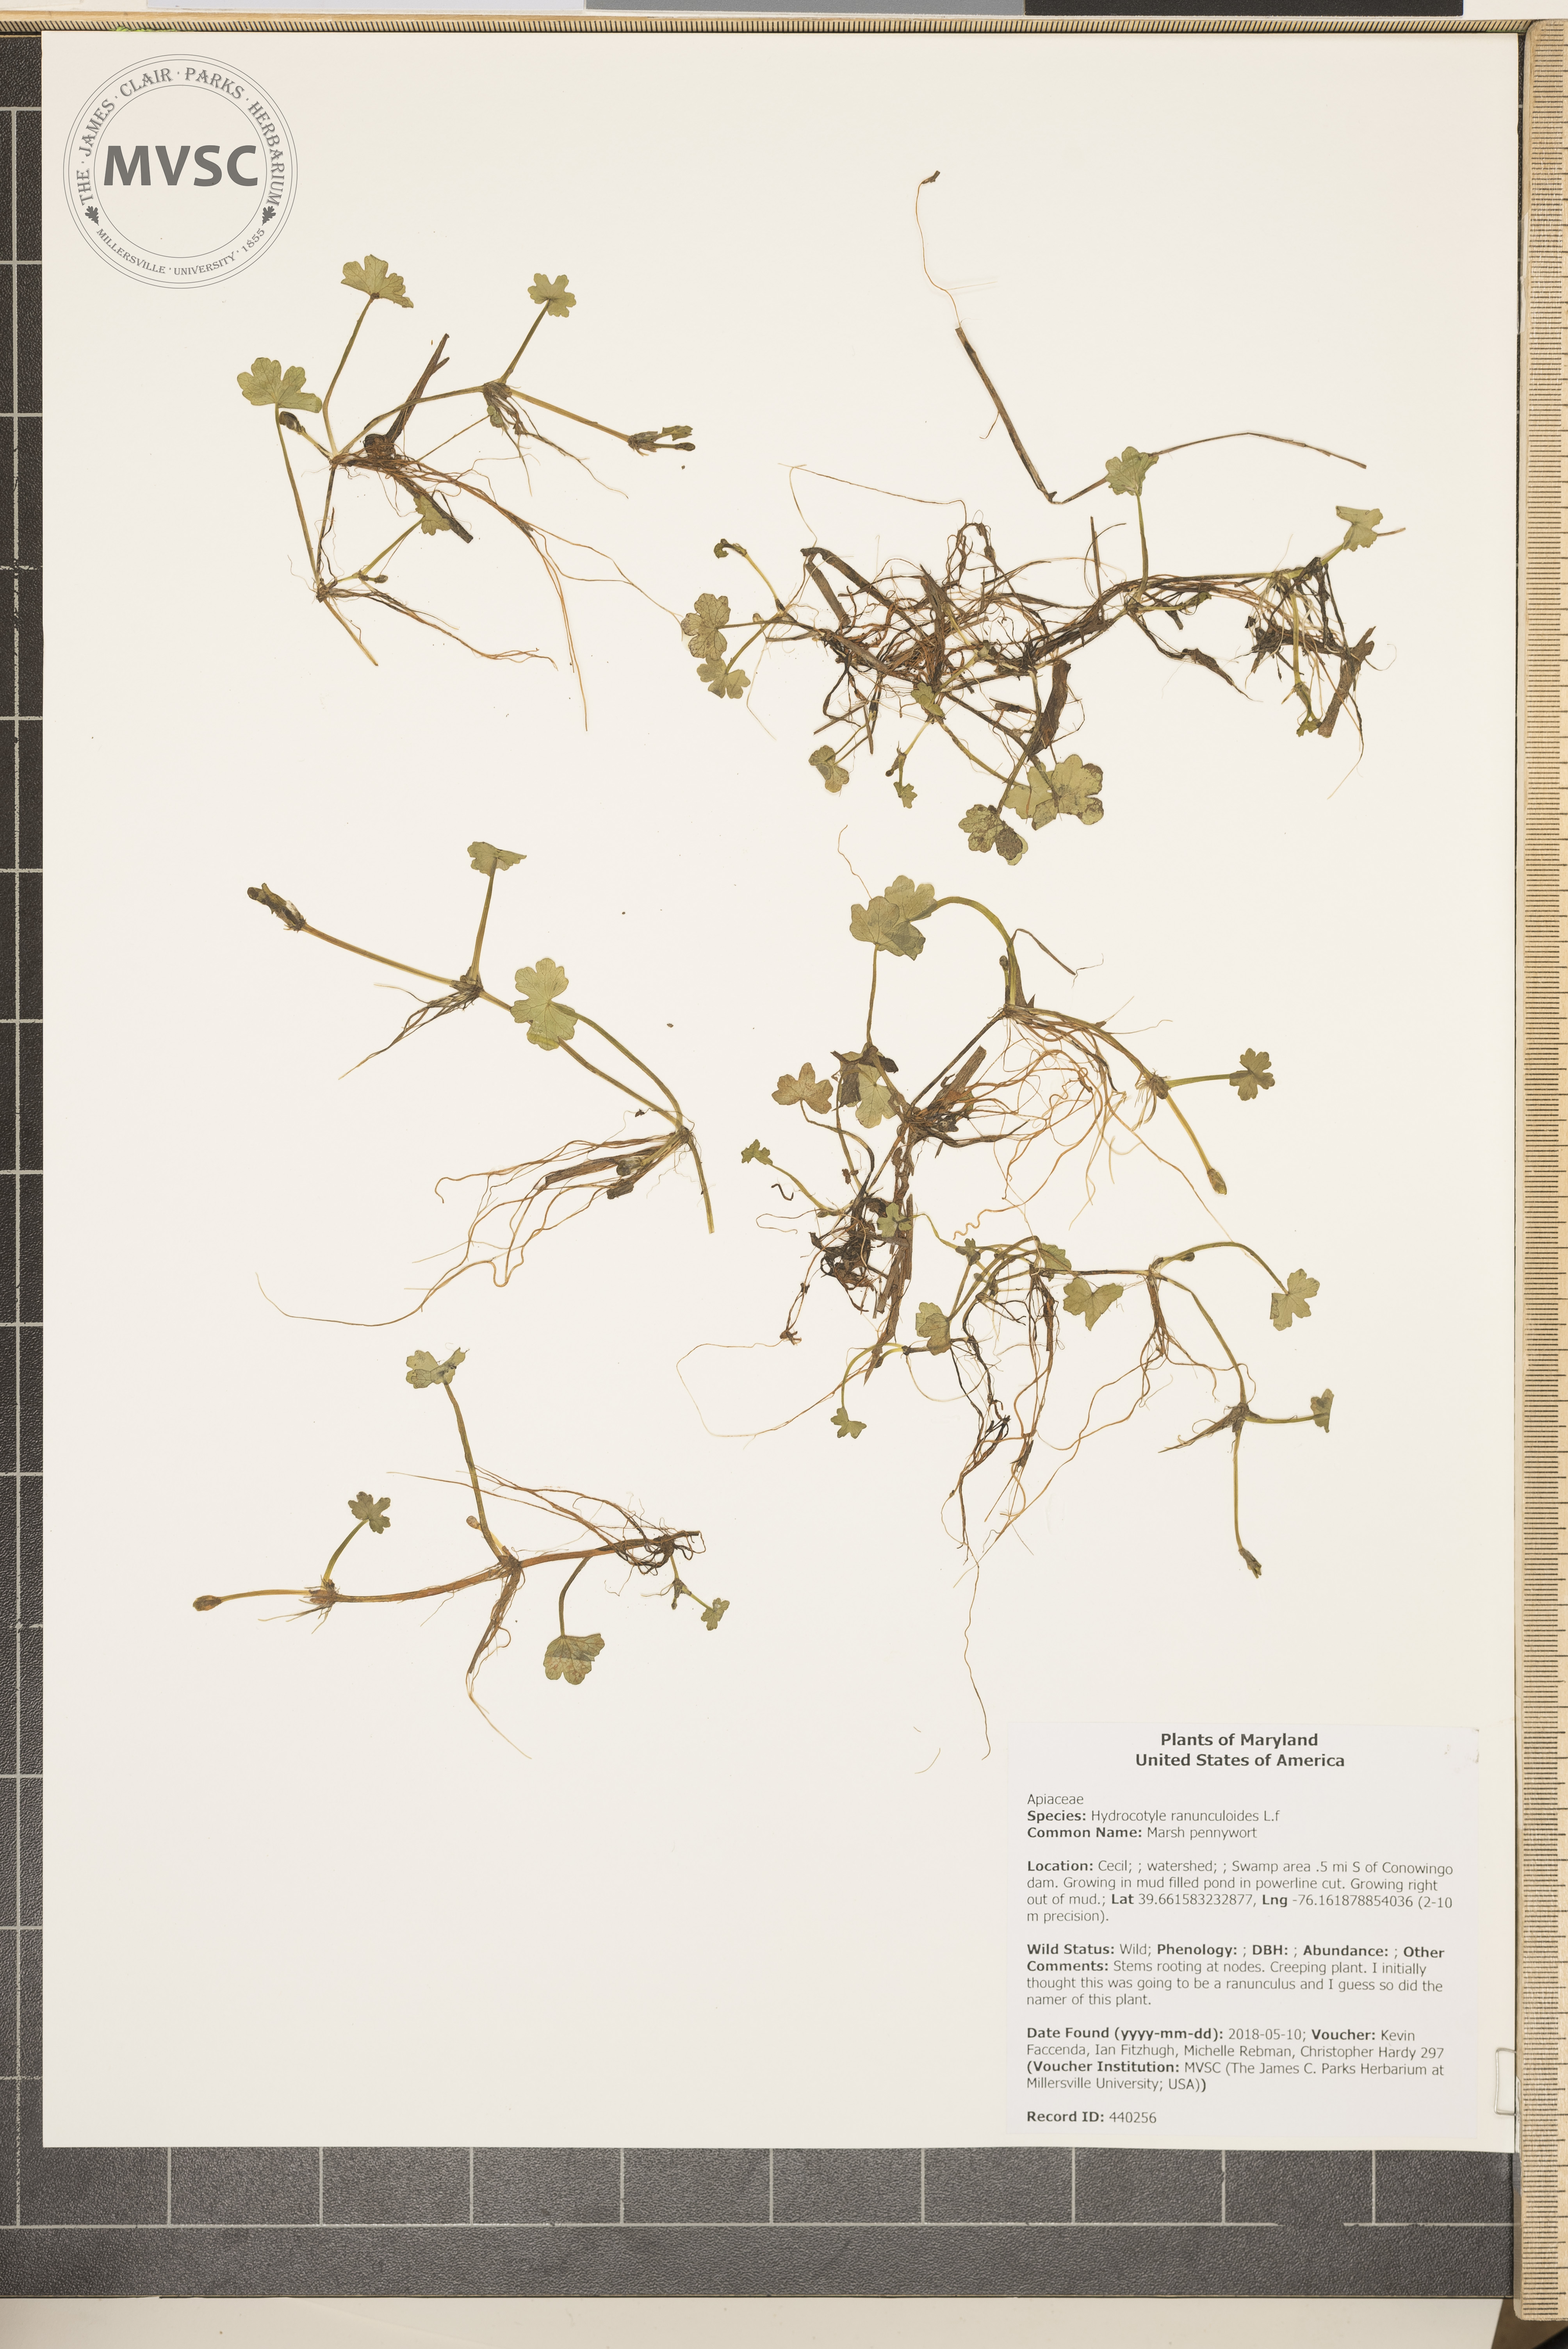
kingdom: Plantae
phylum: Tracheophyta
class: Magnoliopsida
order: Apiales
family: Araliaceae
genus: Hydrocotyle
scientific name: Hydrocotyle ranunculoides
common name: Marsh pennywort
